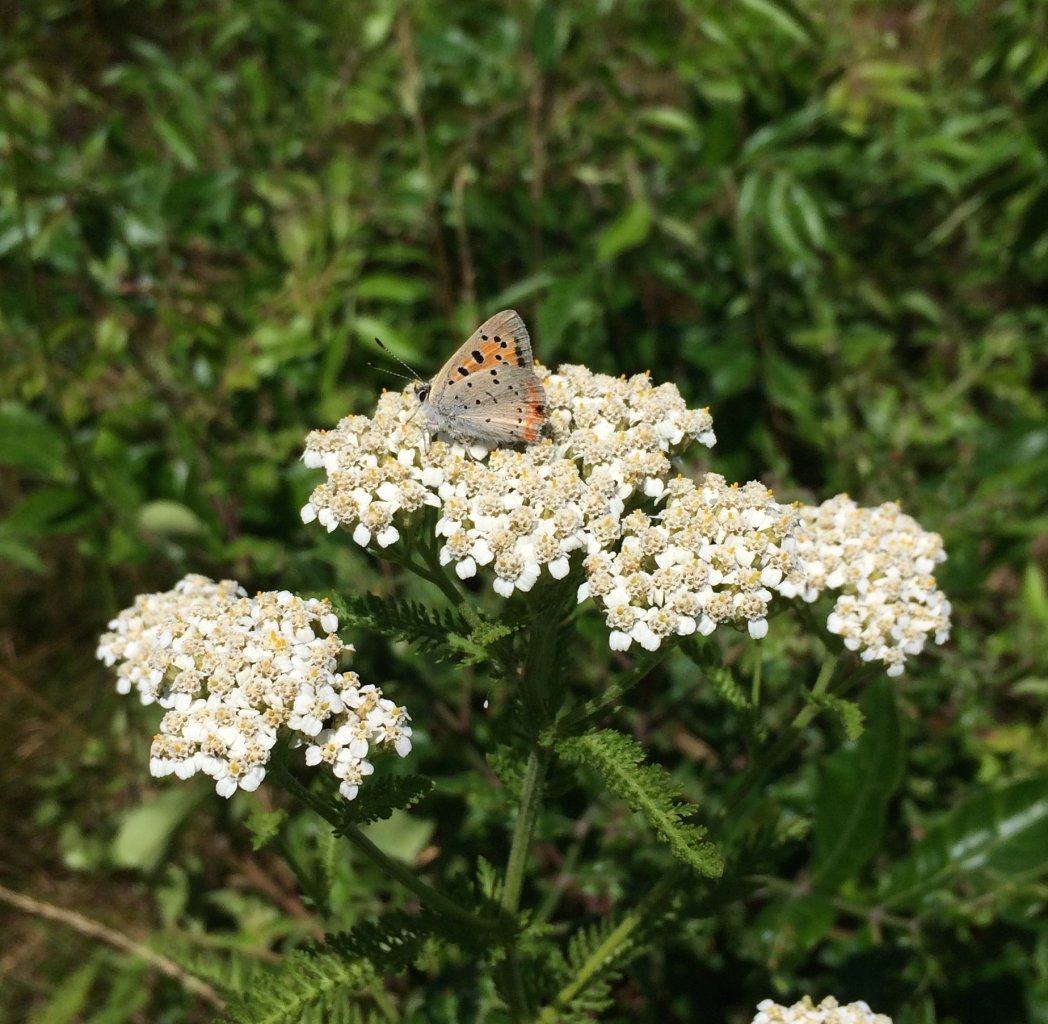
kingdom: Animalia
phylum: Arthropoda
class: Insecta
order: Lepidoptera
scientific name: Lepidoptera
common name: Butterflies
